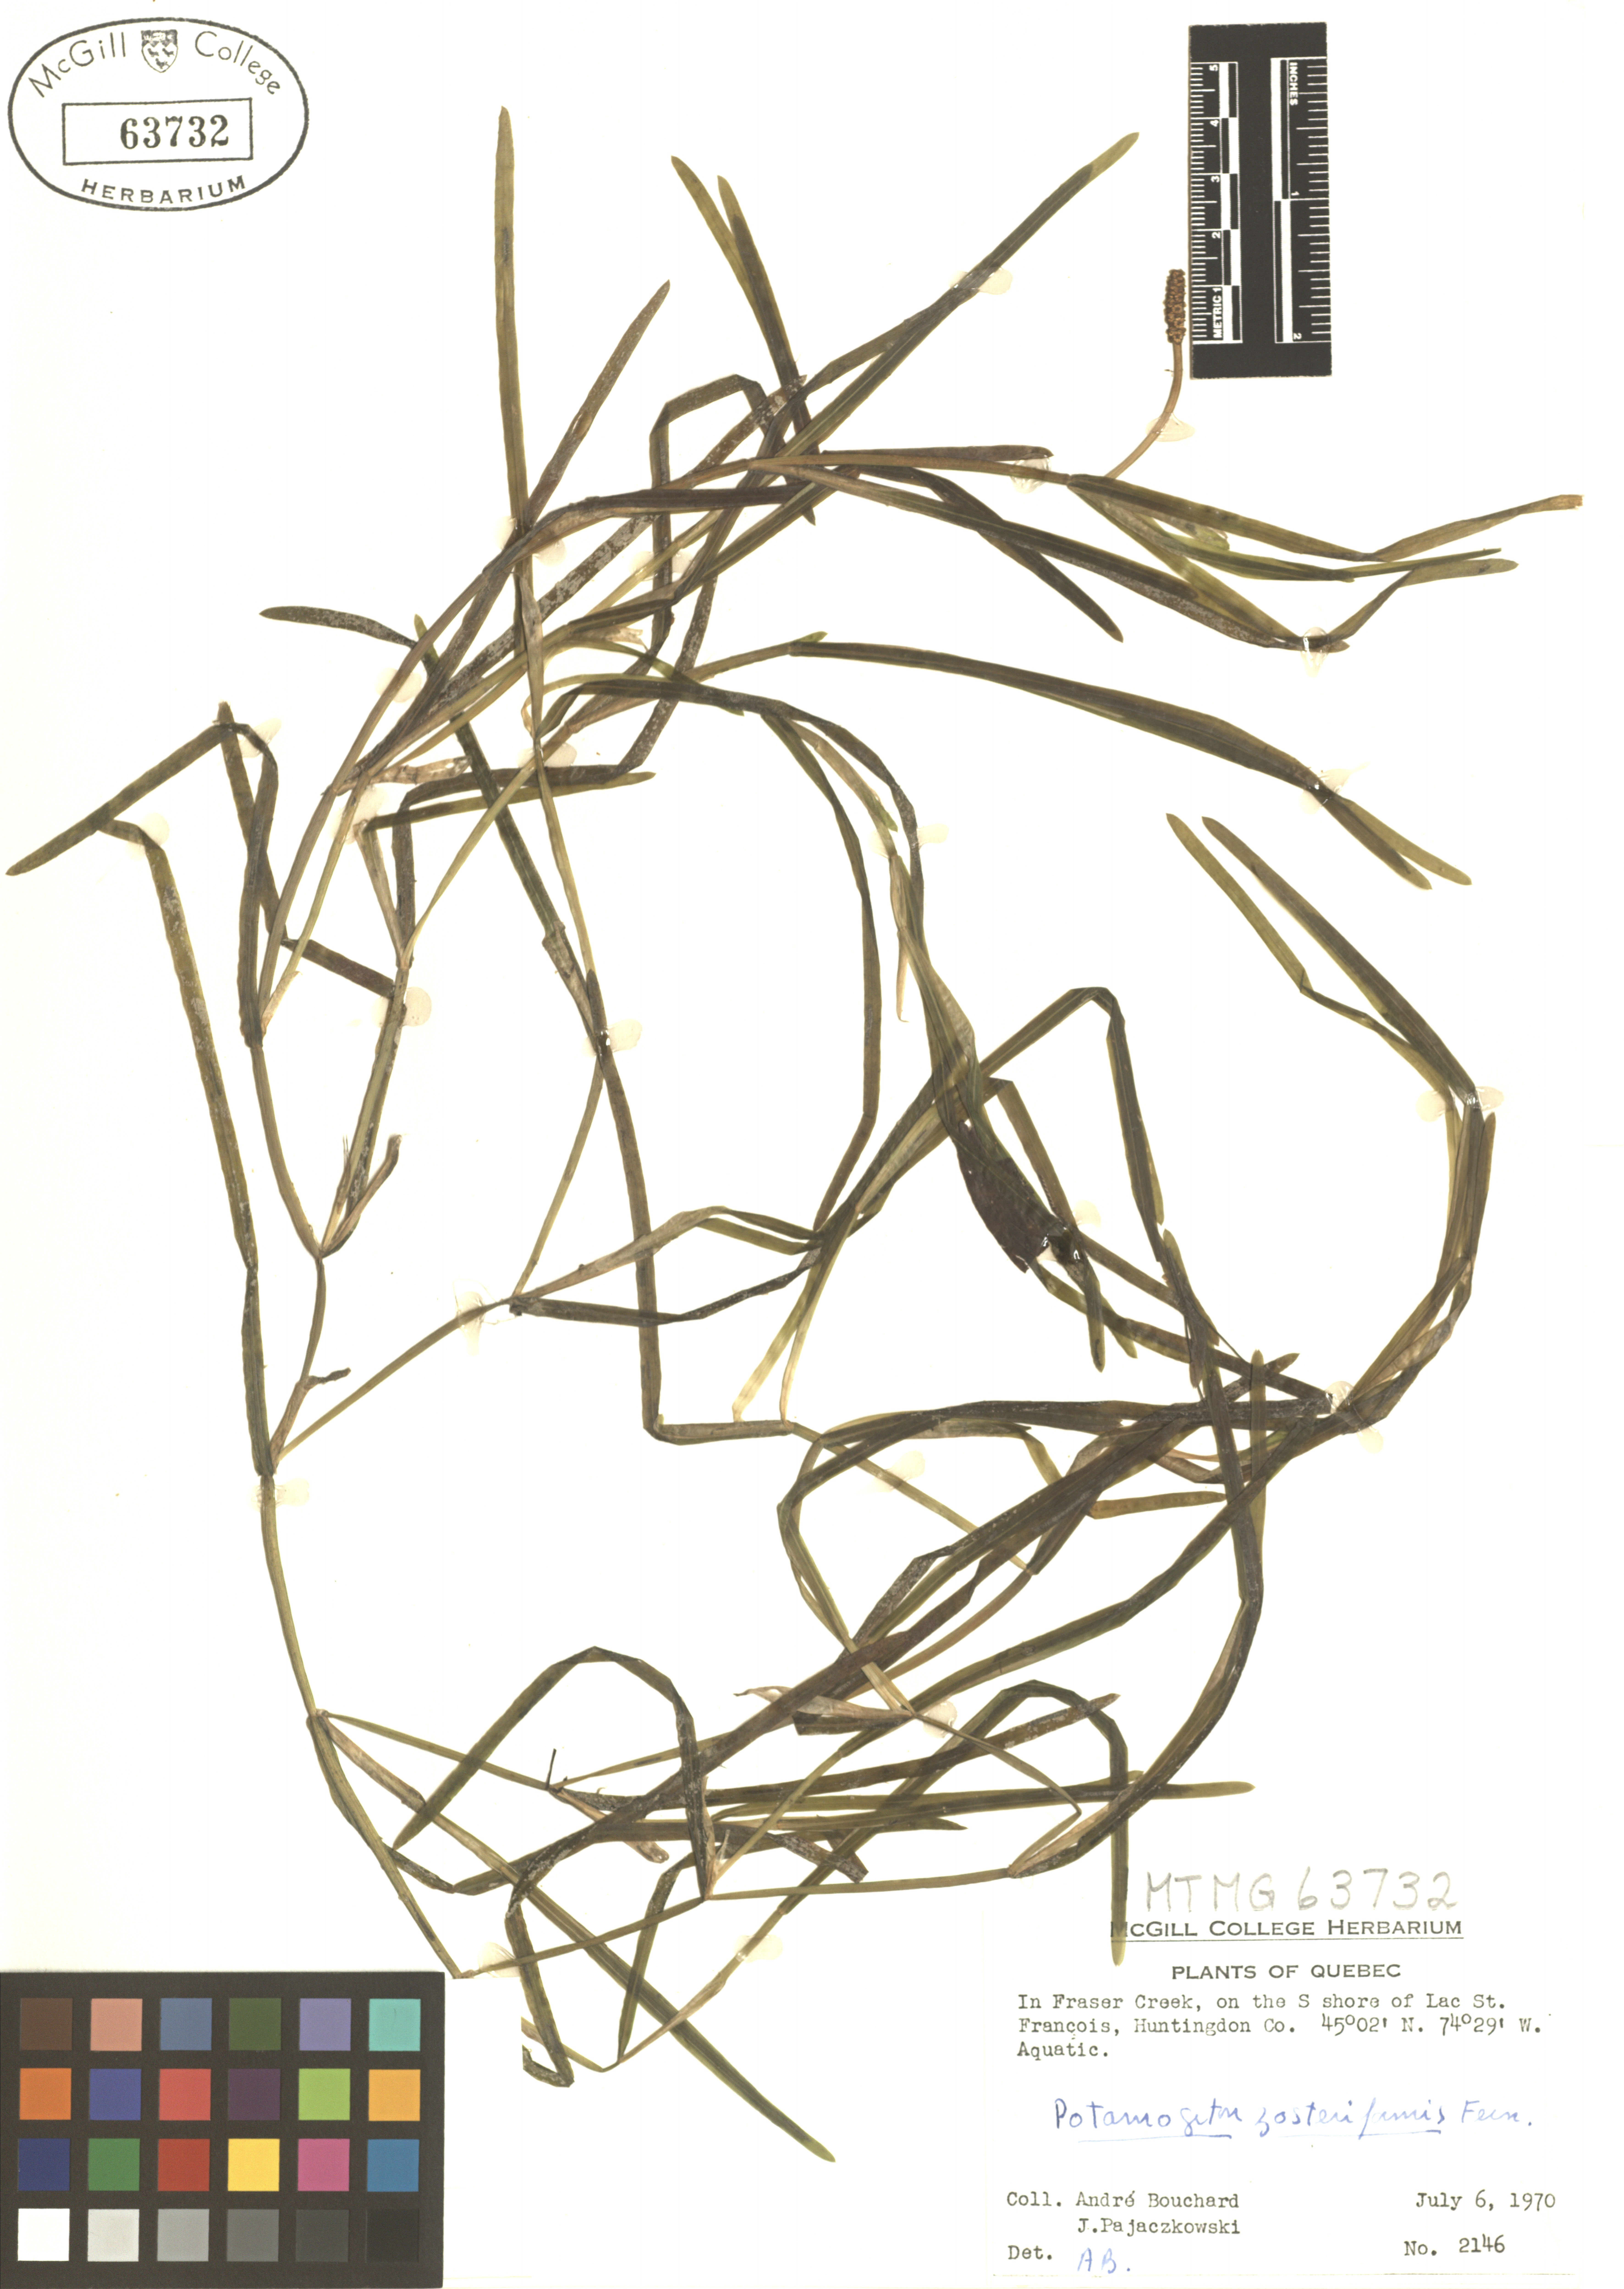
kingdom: Plantae
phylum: Tracheophyta
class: Liliopsida
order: Alismatales
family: Potamogetonaceae
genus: Potamogeton
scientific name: Potamogeton zosteriformis
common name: Eelgrass pondweed
